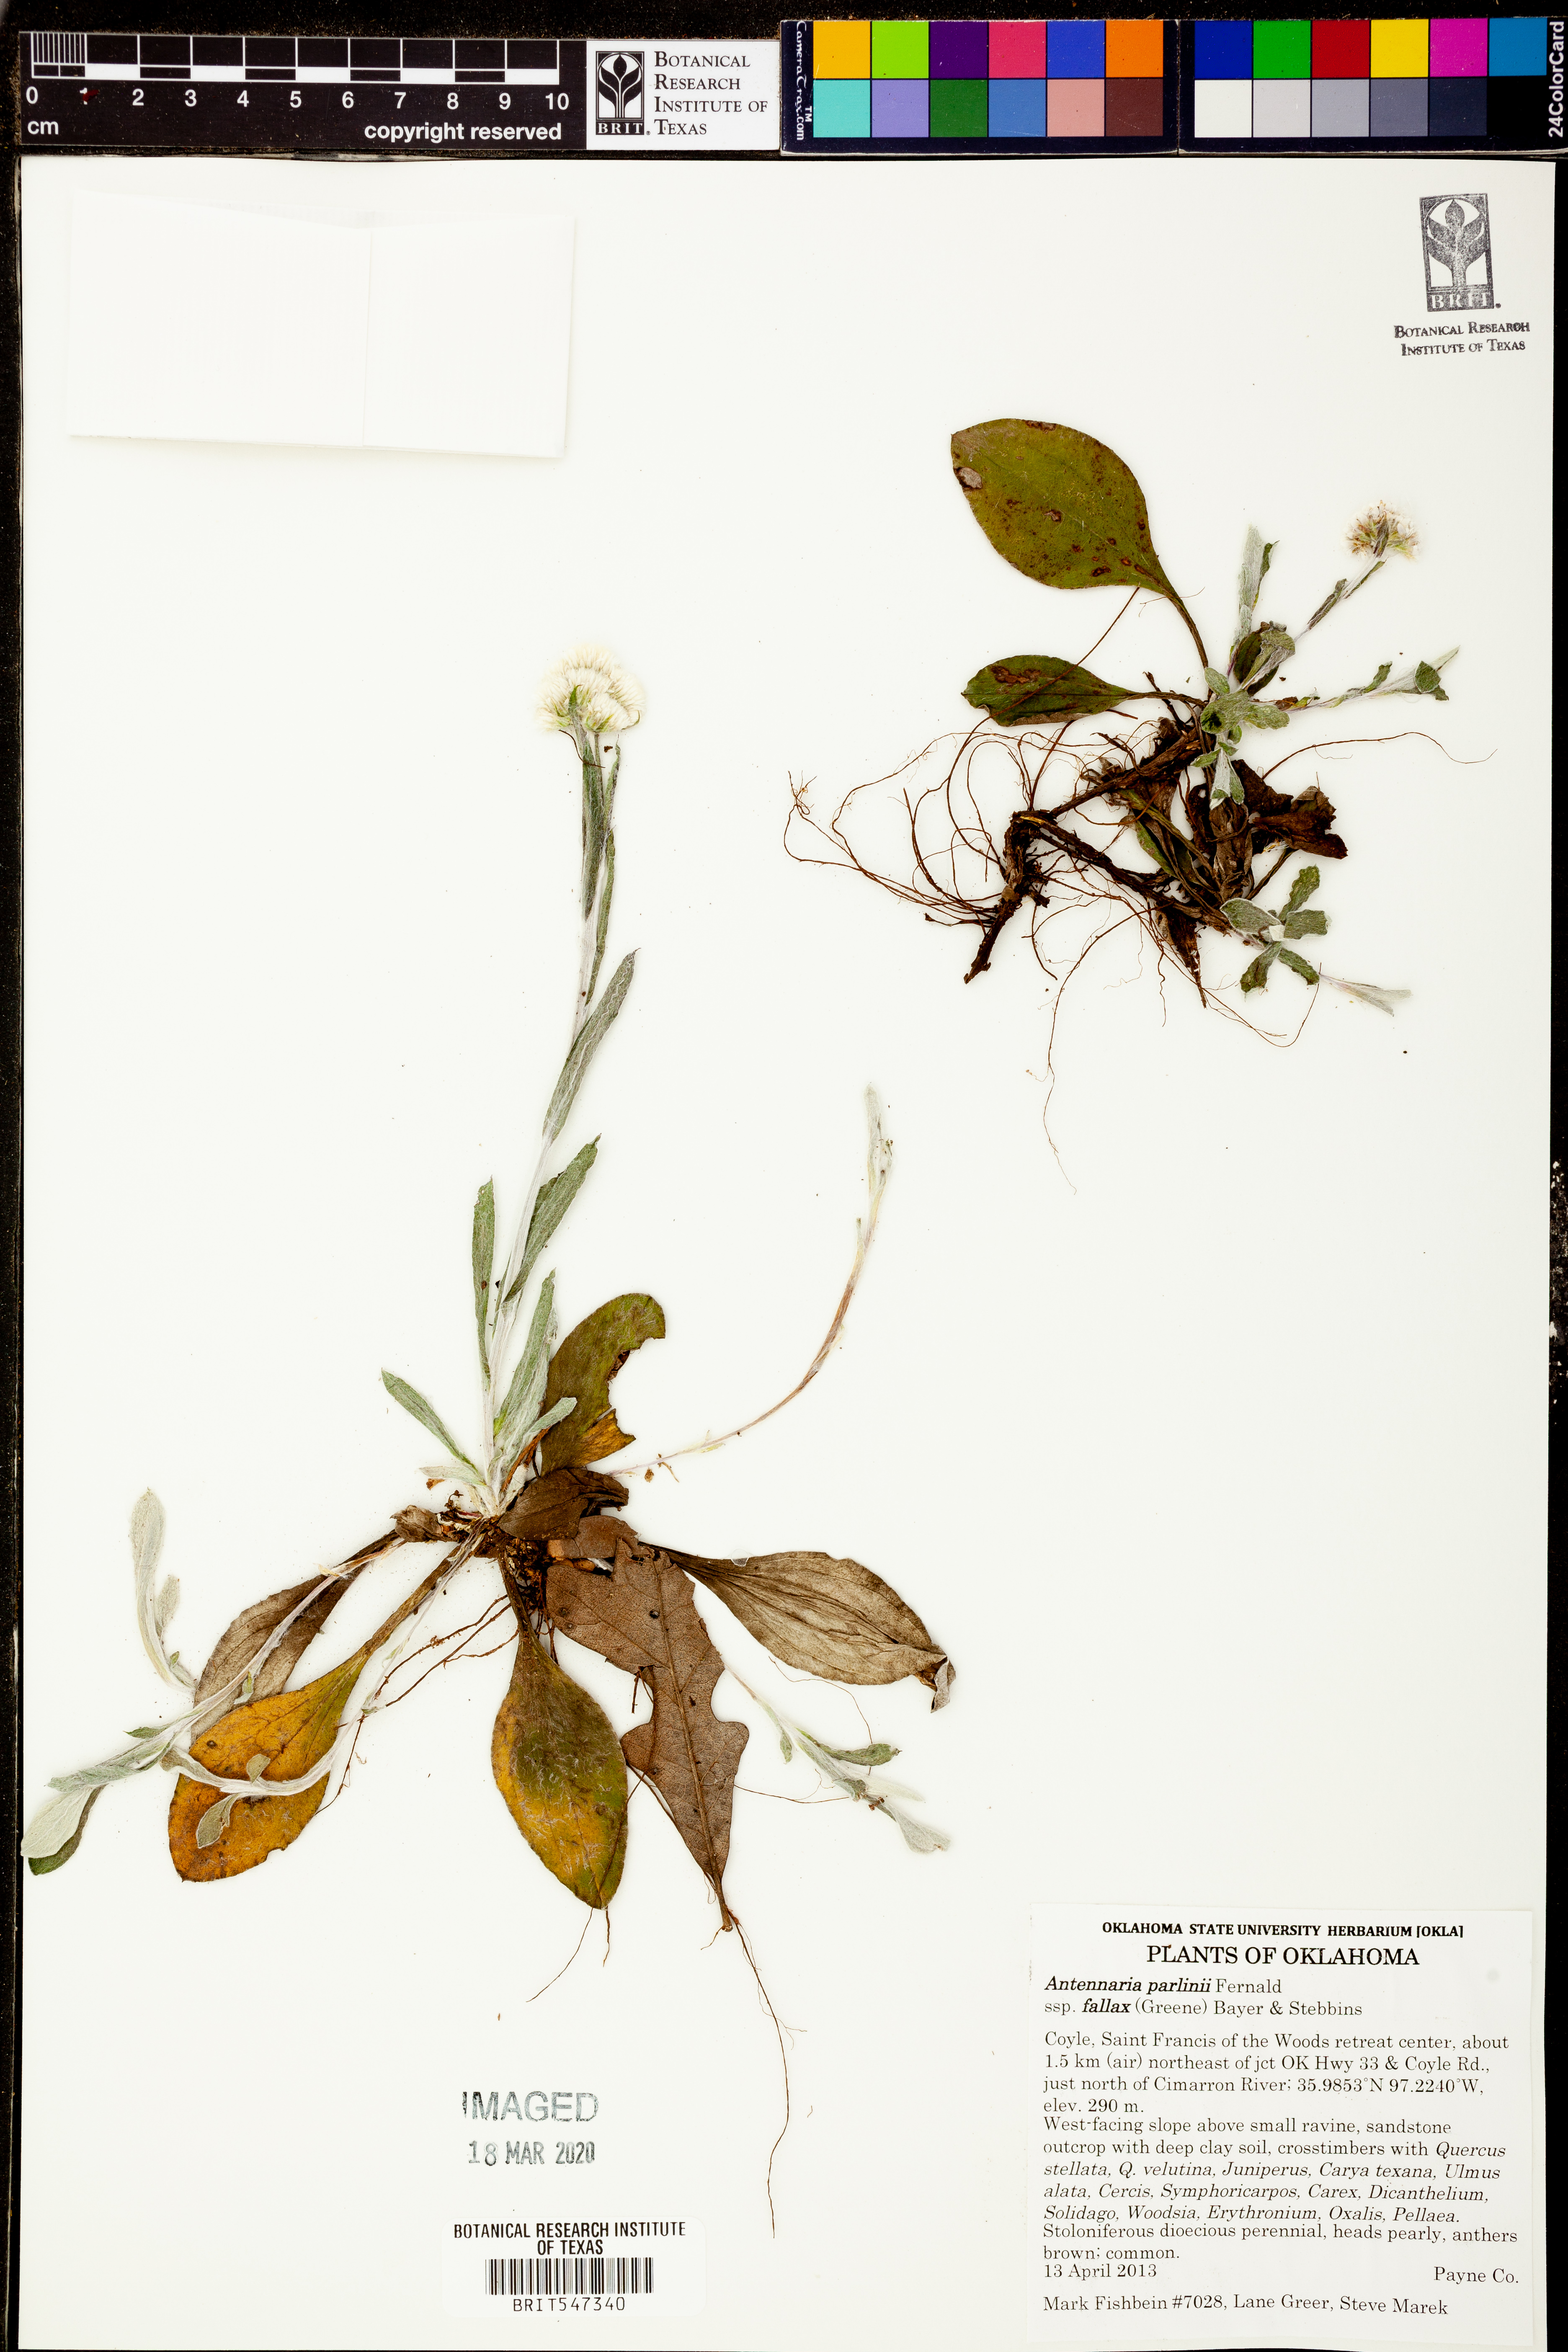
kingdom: Plantae
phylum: Tracheophyta
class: Magnoliopsida
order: Asterales
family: Asteraceae
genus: Antennaria
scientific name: Antennaria parlinii
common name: Parlin's pussytoes
